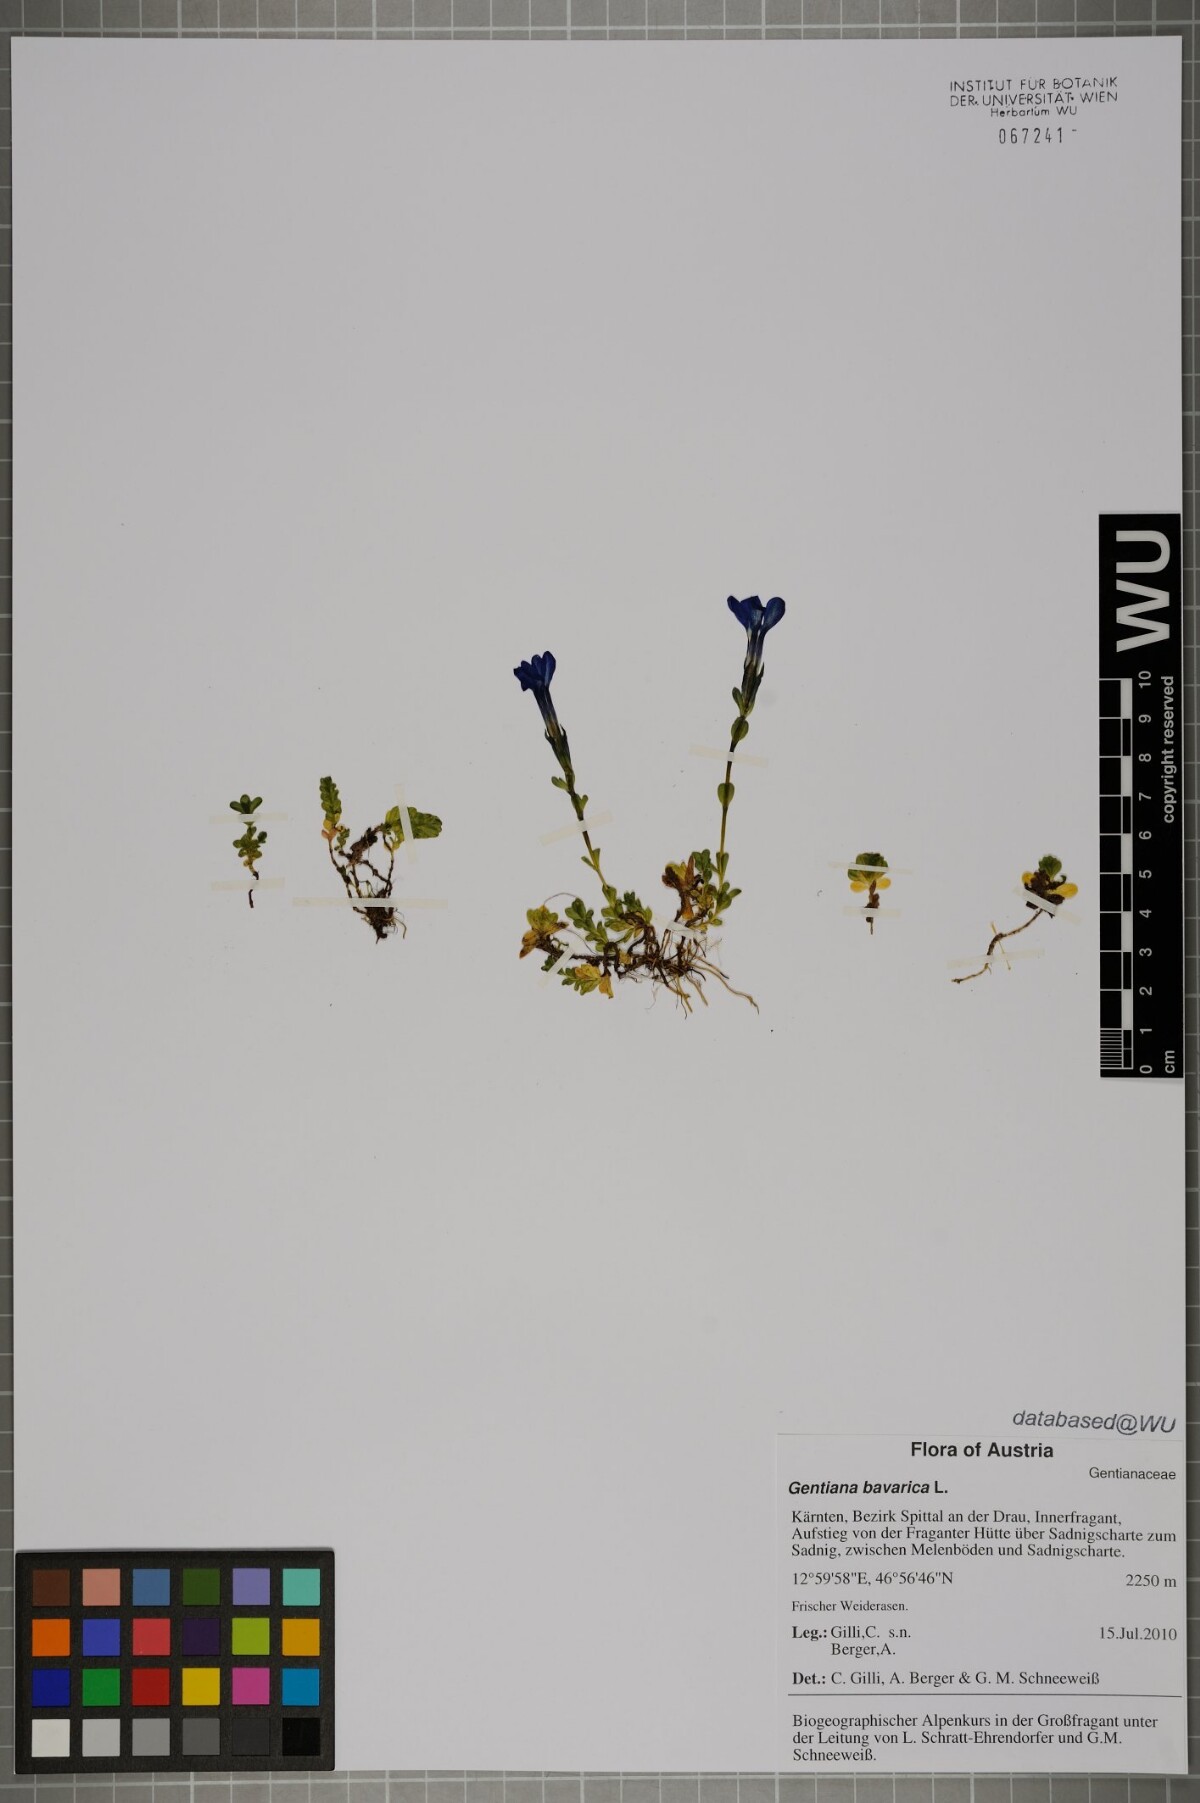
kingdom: Plantae
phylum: Tracheophyta
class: Magnoliopsida
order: Gentianales
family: Gentianaceae
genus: Gentiana
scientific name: Gentiana bavarica
